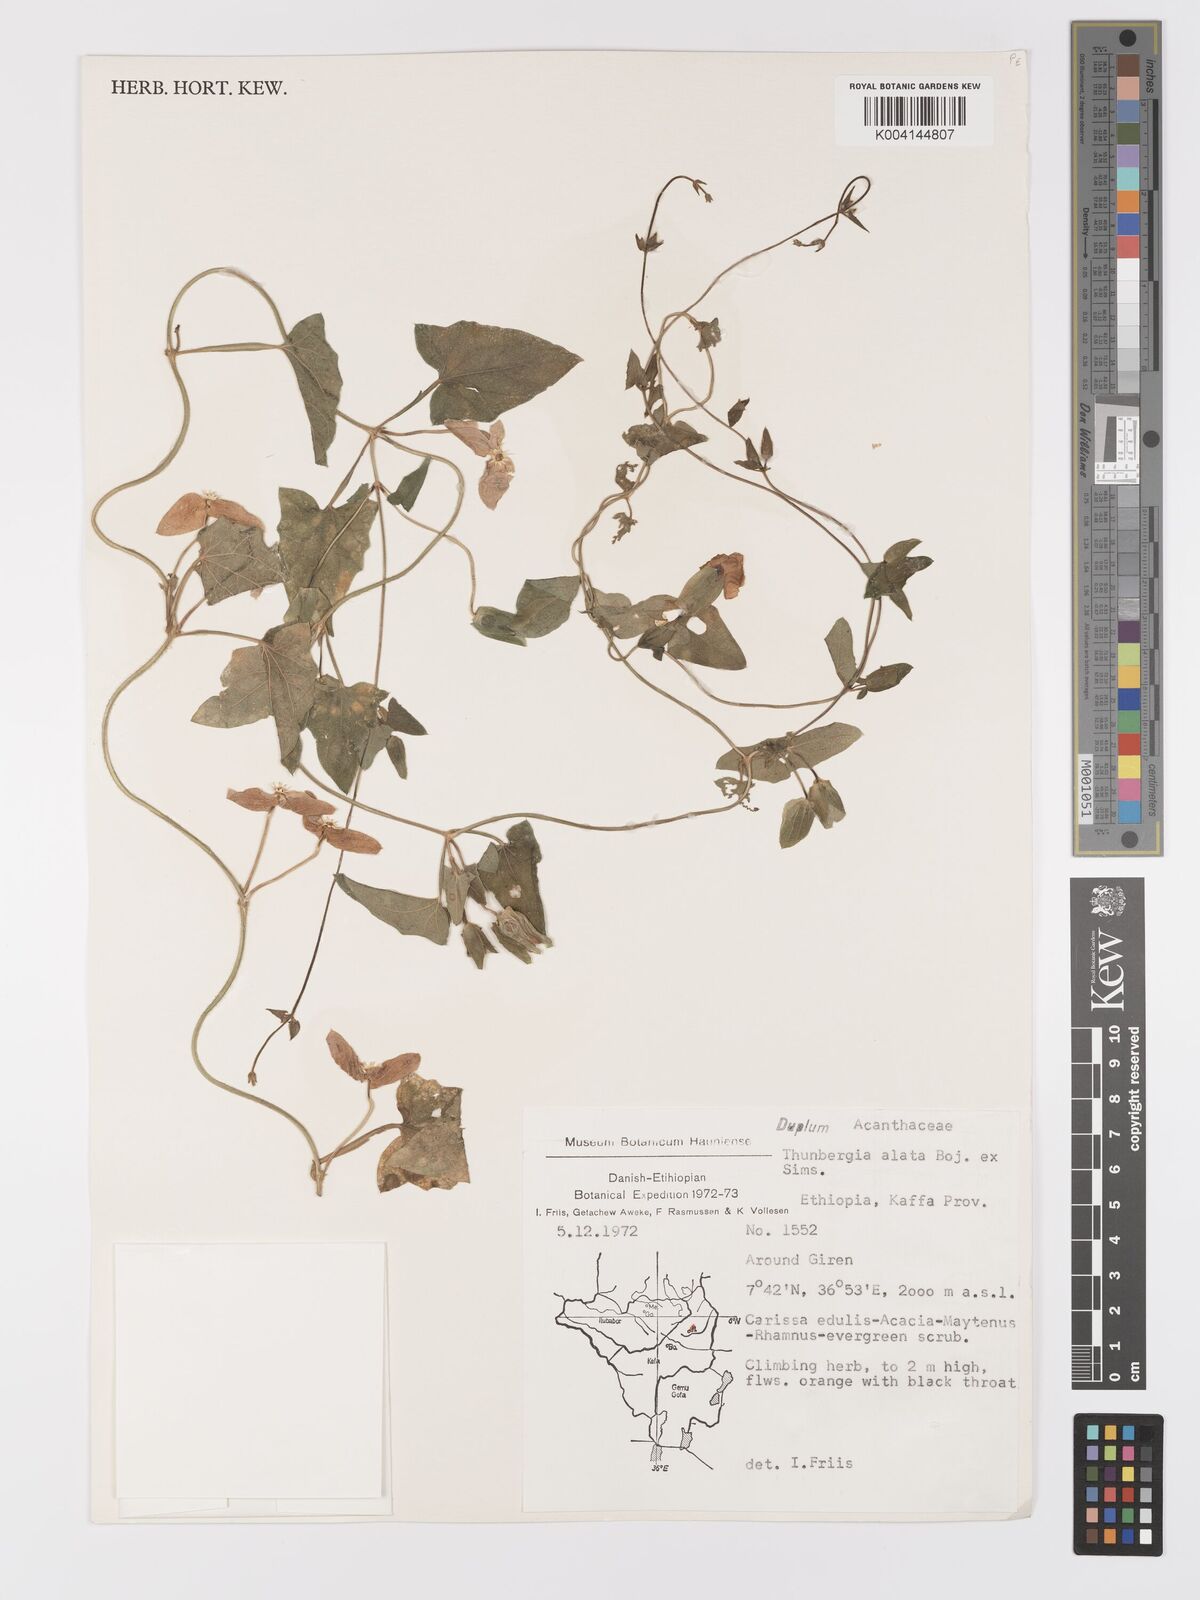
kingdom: Plantae
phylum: Tracheophyta
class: Magnoliopsida
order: Lamiales
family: Acanthaceae
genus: Thunbergia
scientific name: Thunbergia alata
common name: Blackeyed susan vine
